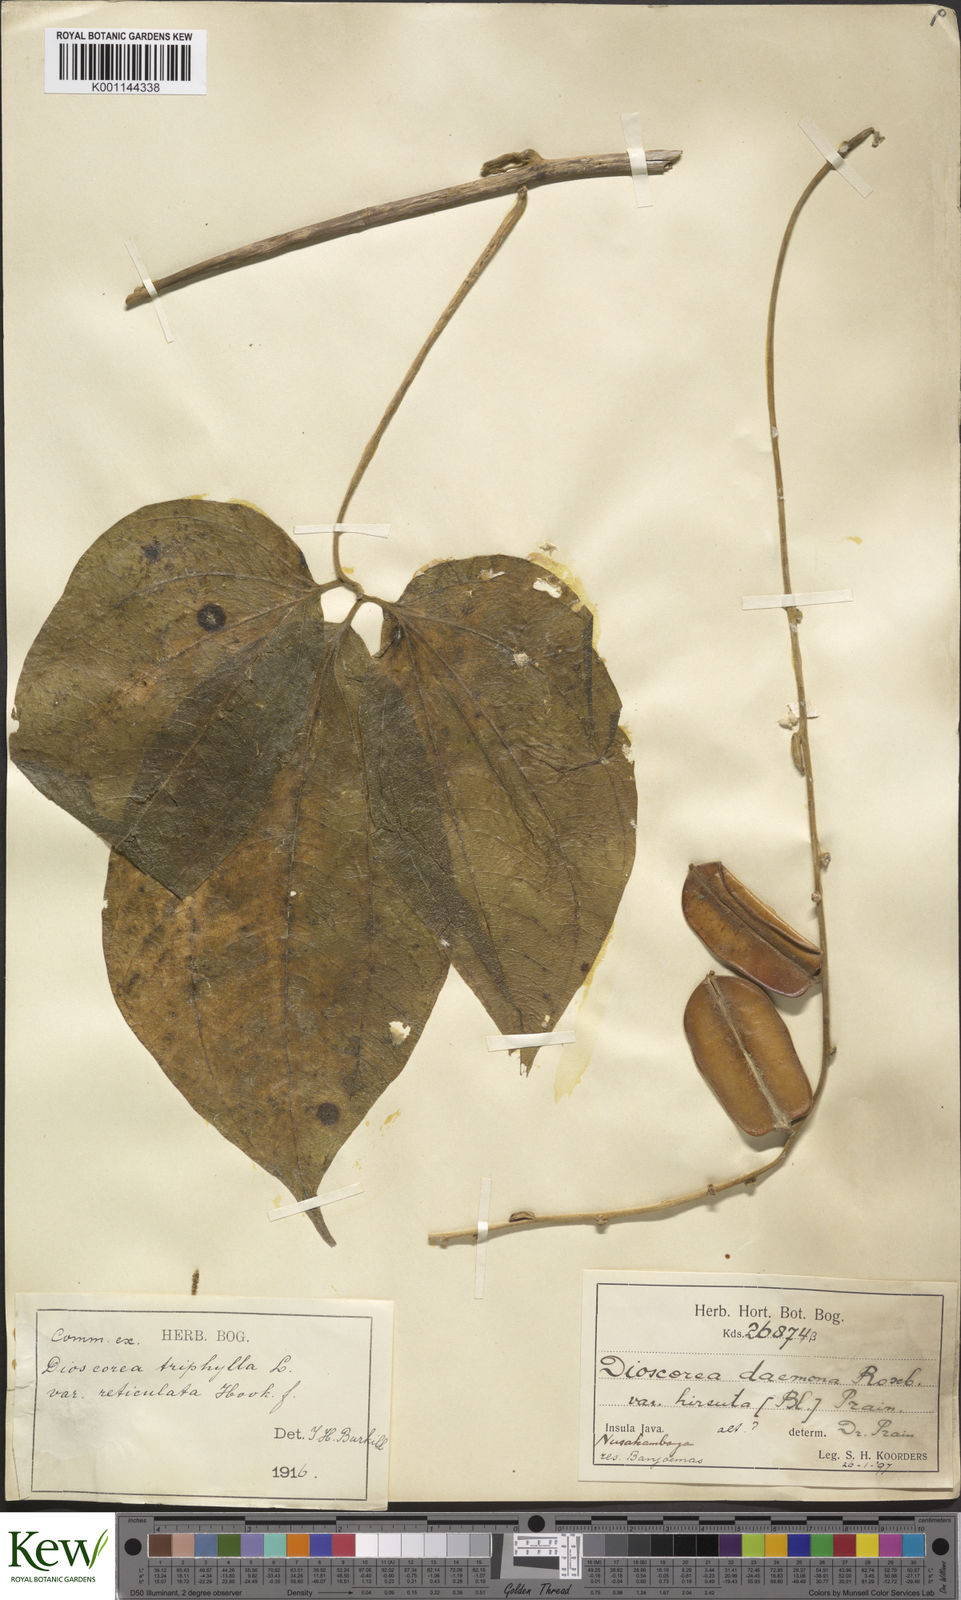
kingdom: Plantae
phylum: Tracheophyta
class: Liliopsida
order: Dioscoreales
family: Dioscoreaceae
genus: Dioscorea
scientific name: Dioscorea hispida
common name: Asiatic bitter yam
